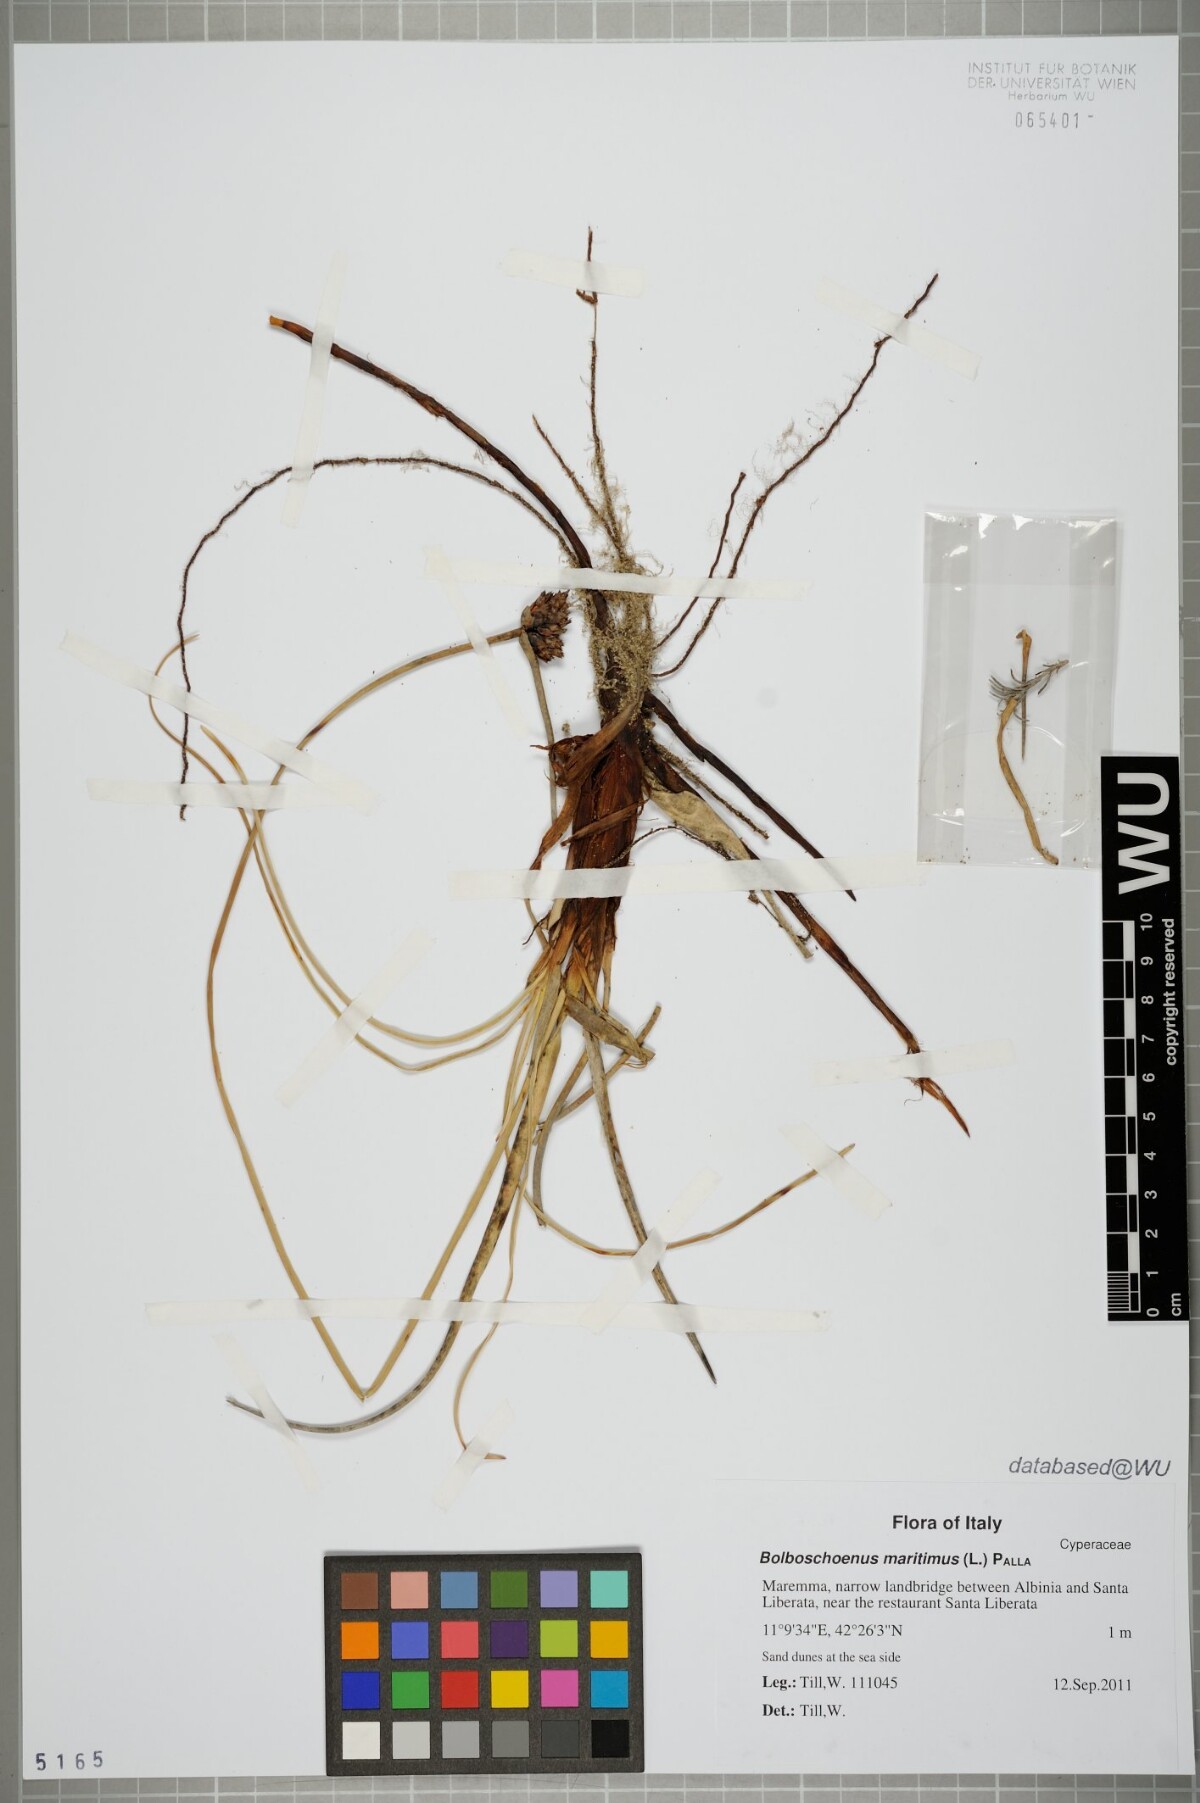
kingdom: Plantae
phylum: Tracheophyta
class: Liliopsida
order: Poales
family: Cyperaceae
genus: Bolboschoenus
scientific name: Bolboschoenus maritimus
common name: Sea club-rush
